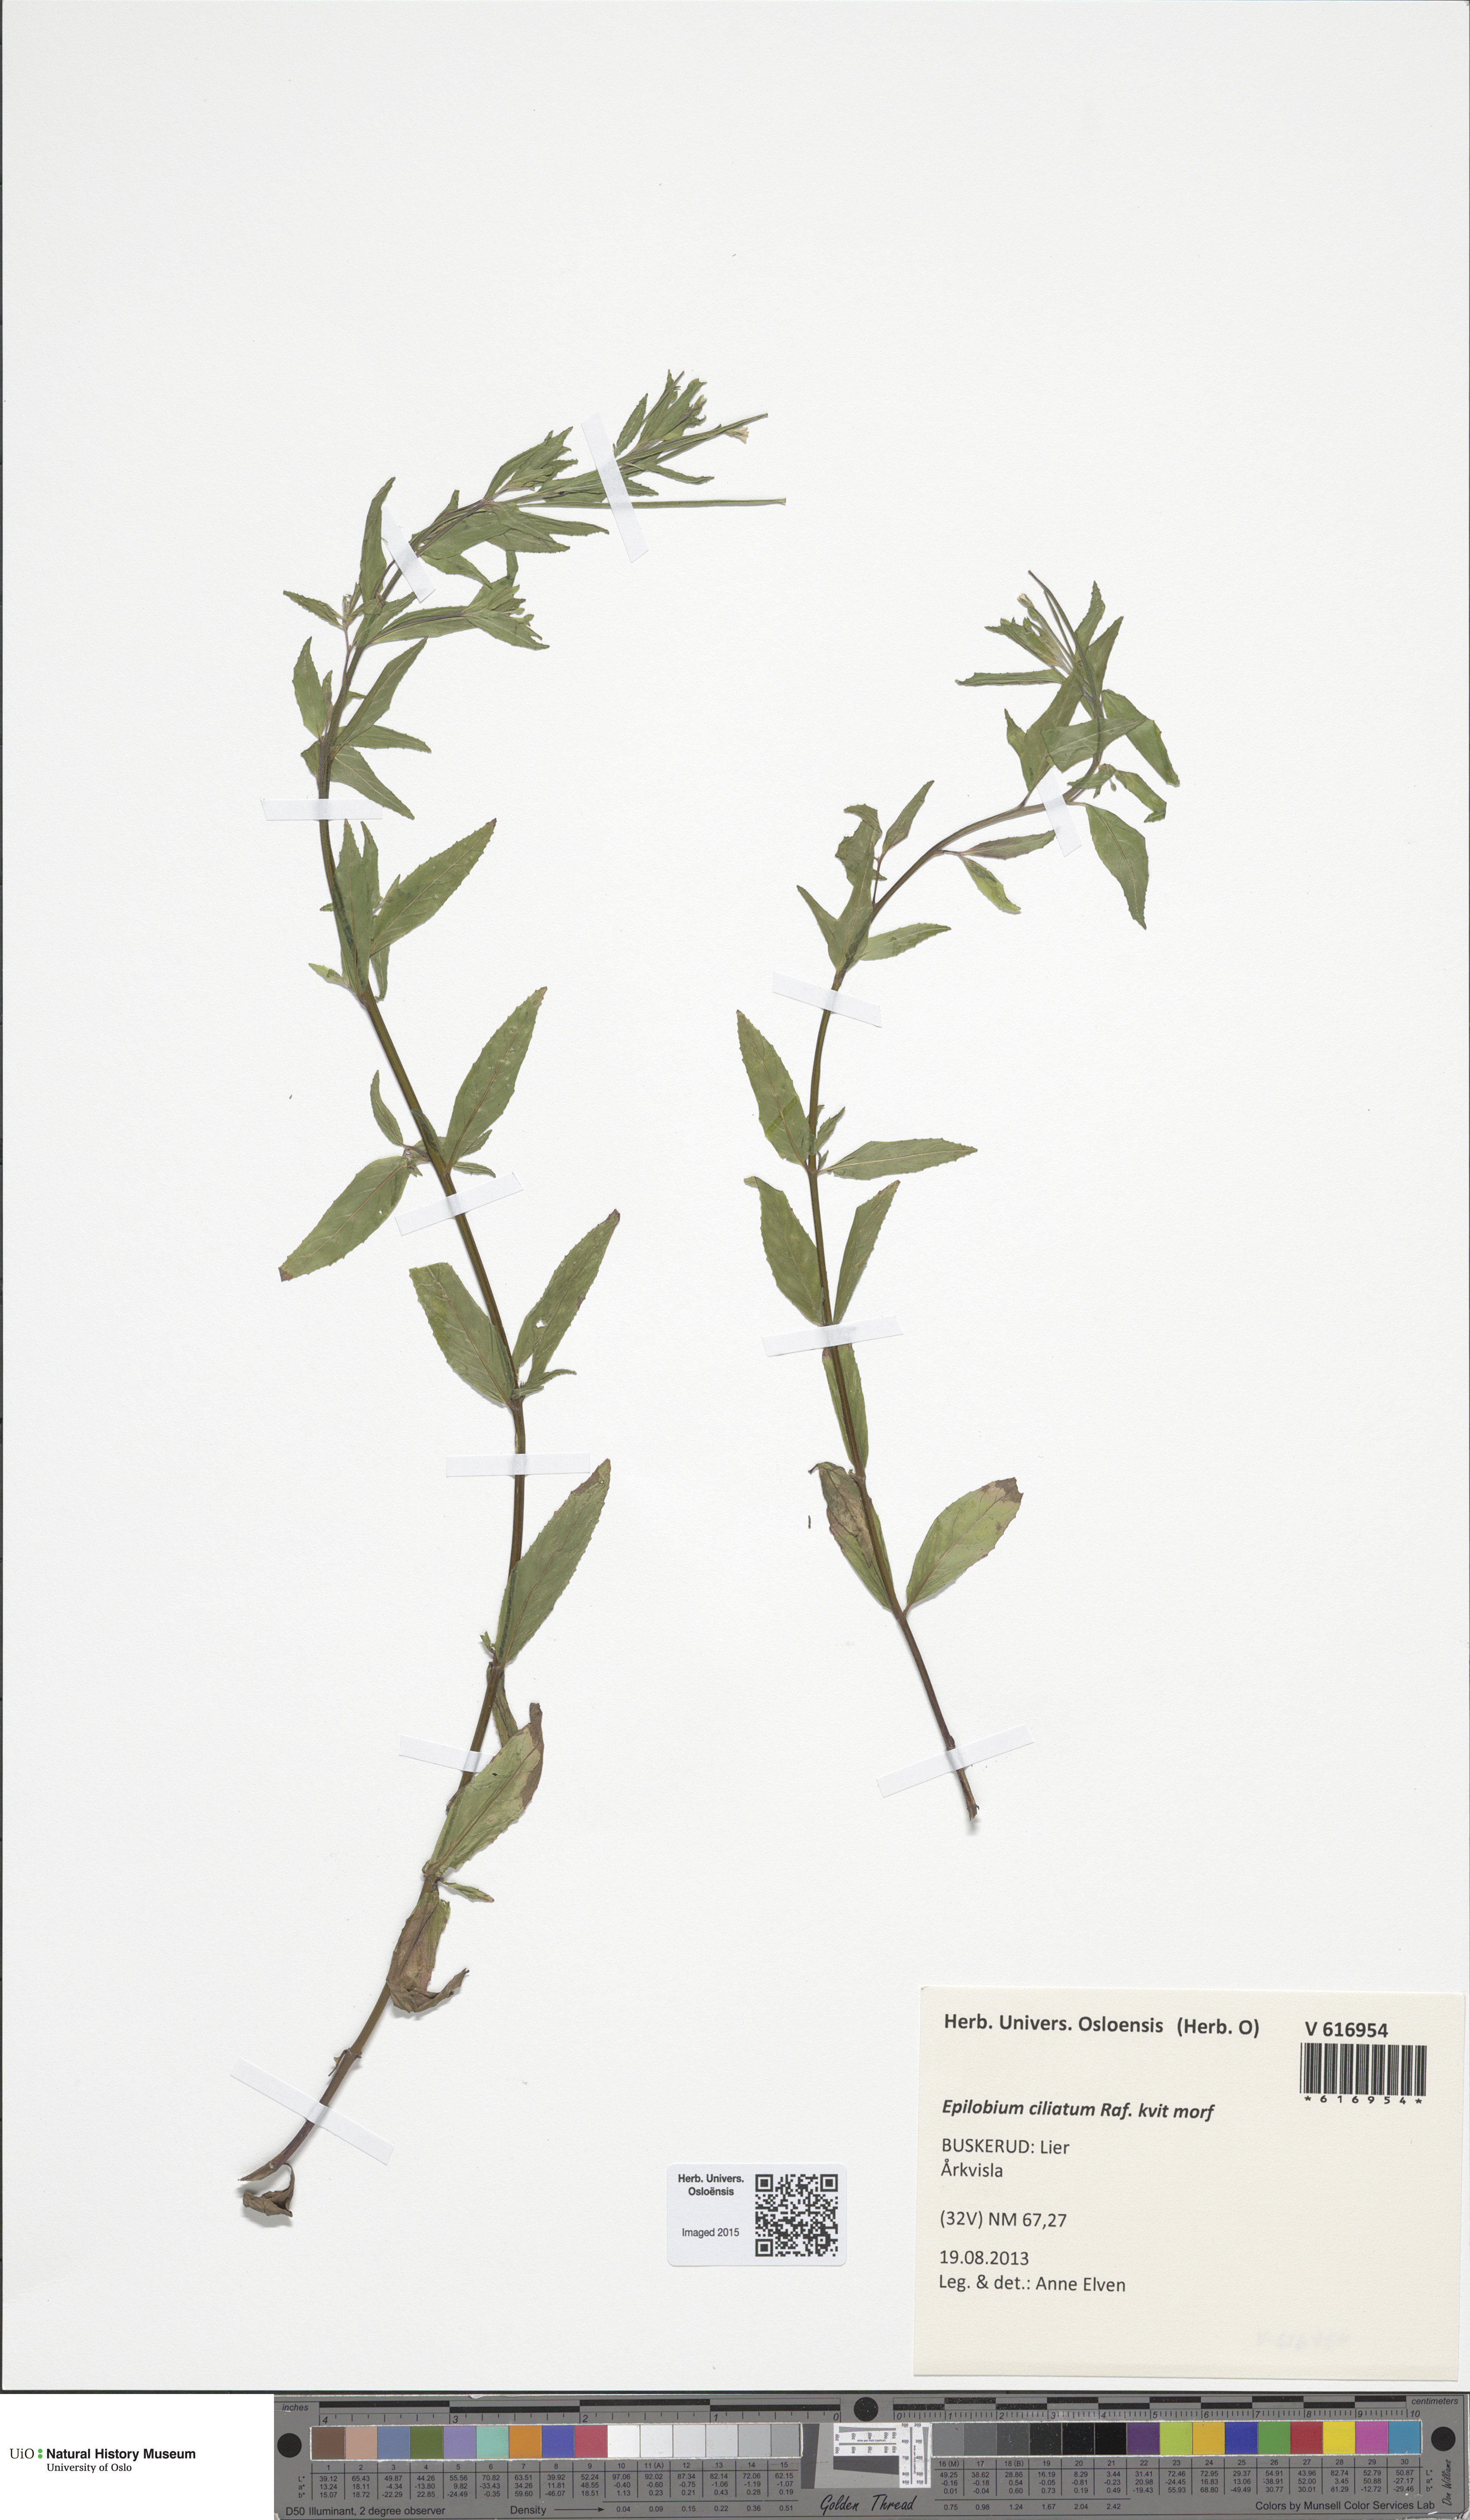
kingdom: Plantae
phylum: Tracheophyta
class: Magnoliopsida
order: Myrtales
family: Onagraceae
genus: Epilobium
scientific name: Epilobium ciliatum
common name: American willowherb
